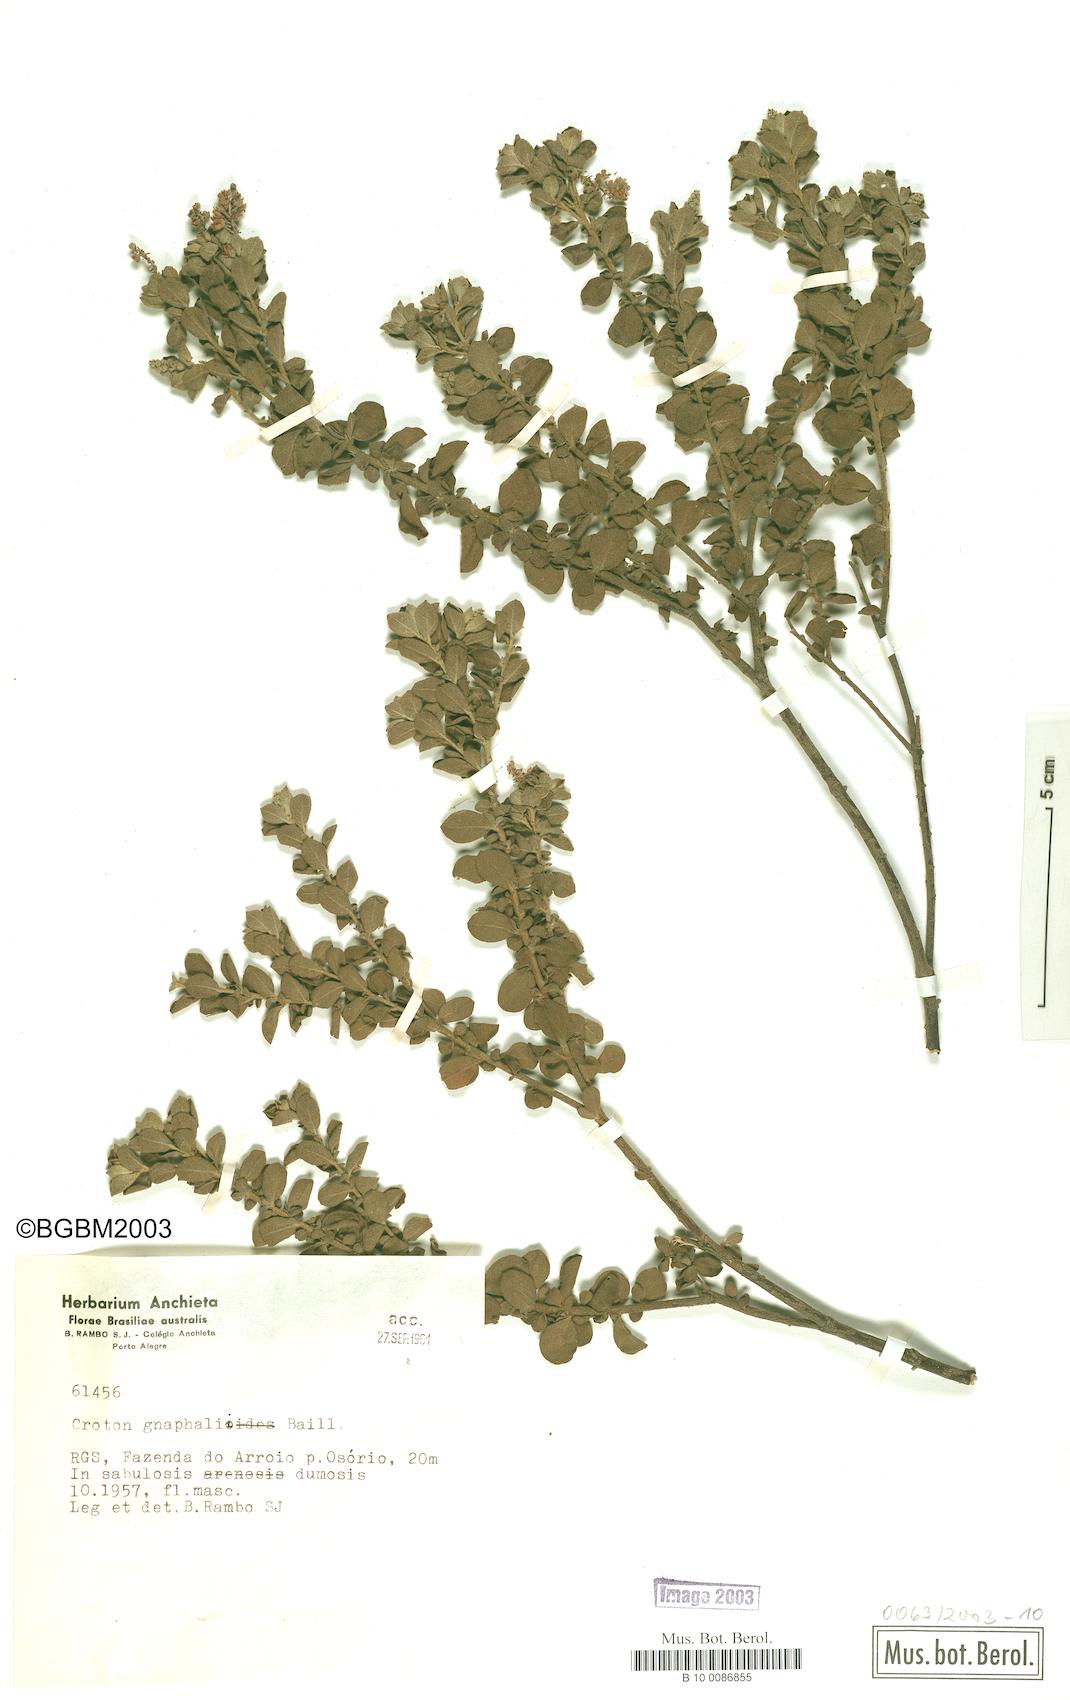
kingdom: Plantae
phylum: Tracheophyta
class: Magnoliopsida
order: Malpighiales
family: Euphorbiaceae
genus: Croton
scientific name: Croton gnaphalii
